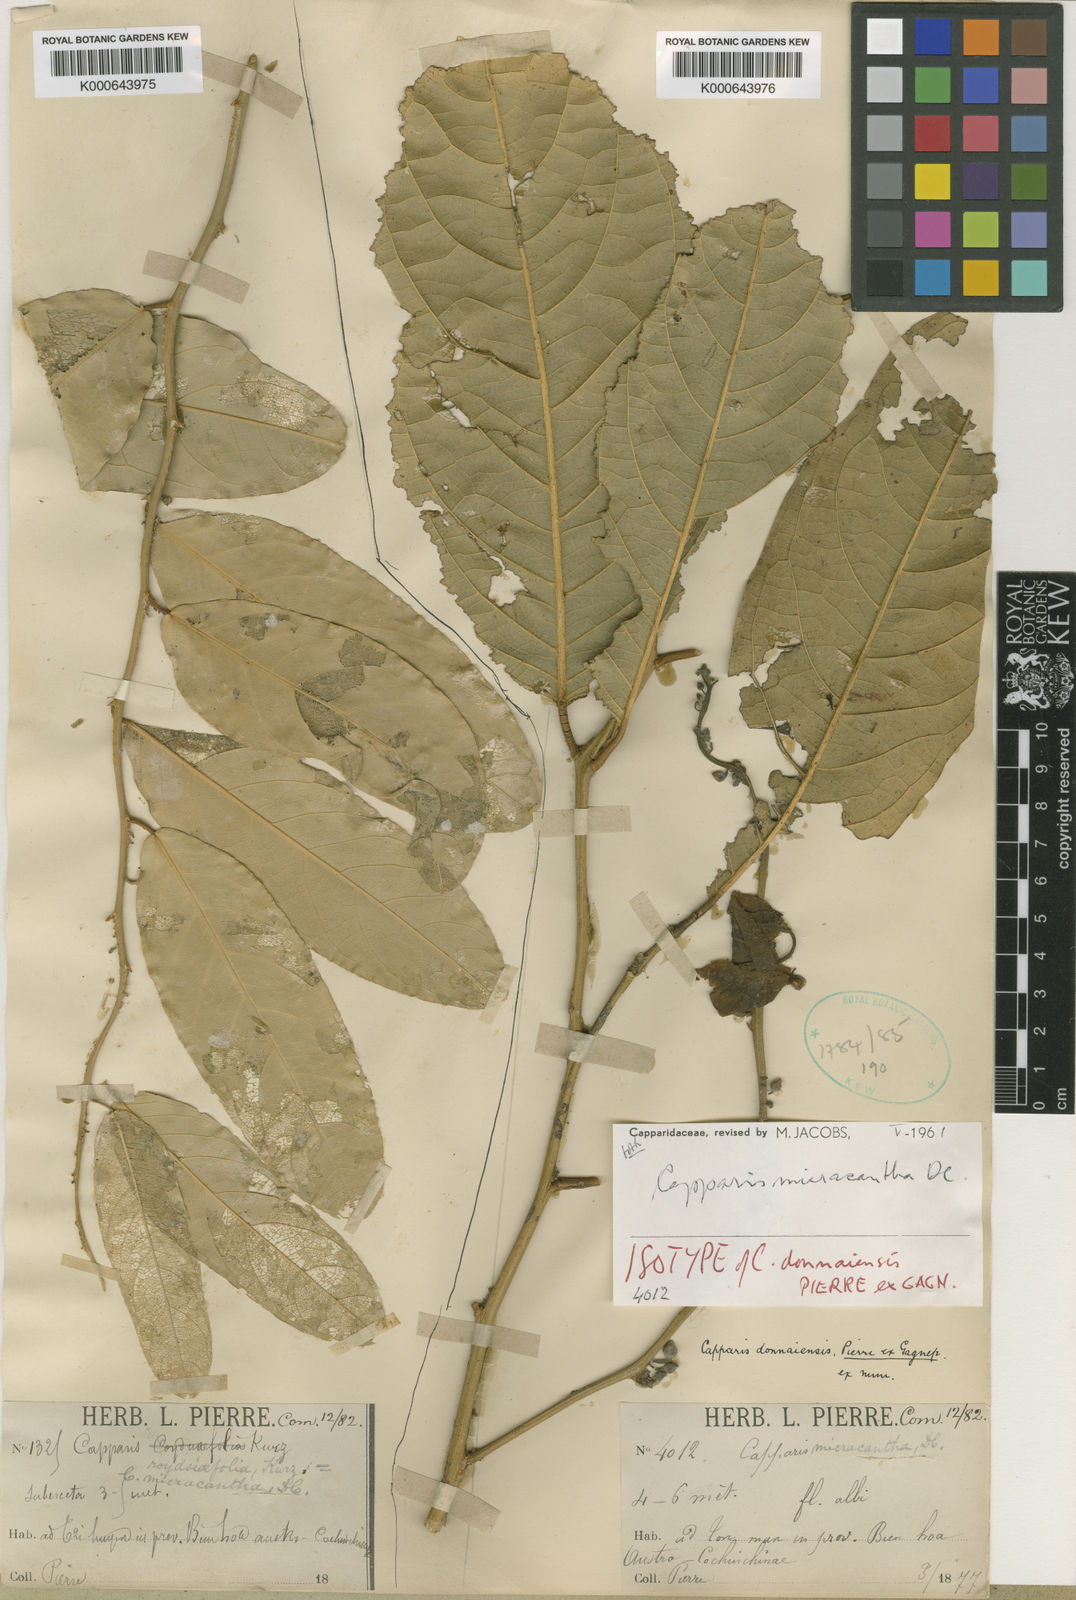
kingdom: Plantae
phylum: Tracheophyta
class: Magnoliopsida
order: Brassicales
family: Capparaceae
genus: Capparis
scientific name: Capparis micracantha
